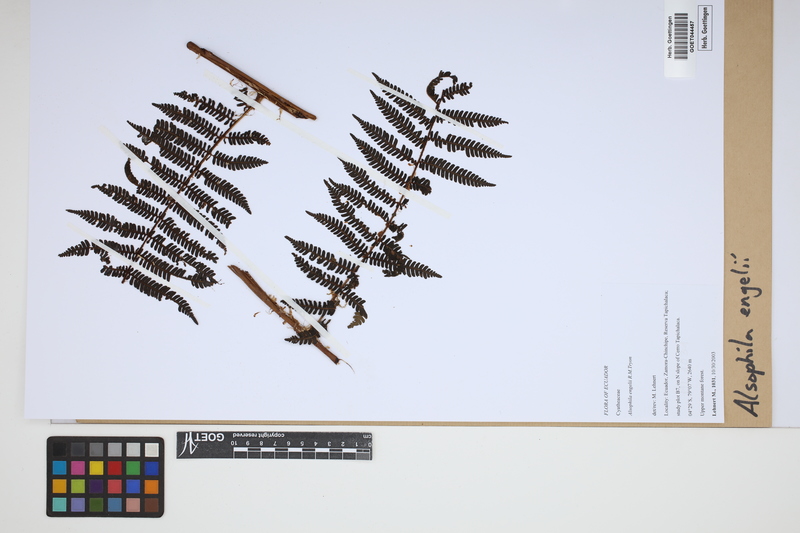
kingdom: Plantae
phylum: Tracheophyta
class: Polypodiopsida
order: Cyatheales
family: Cyatheaceae
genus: Alsophila
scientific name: Alsophila engelii
